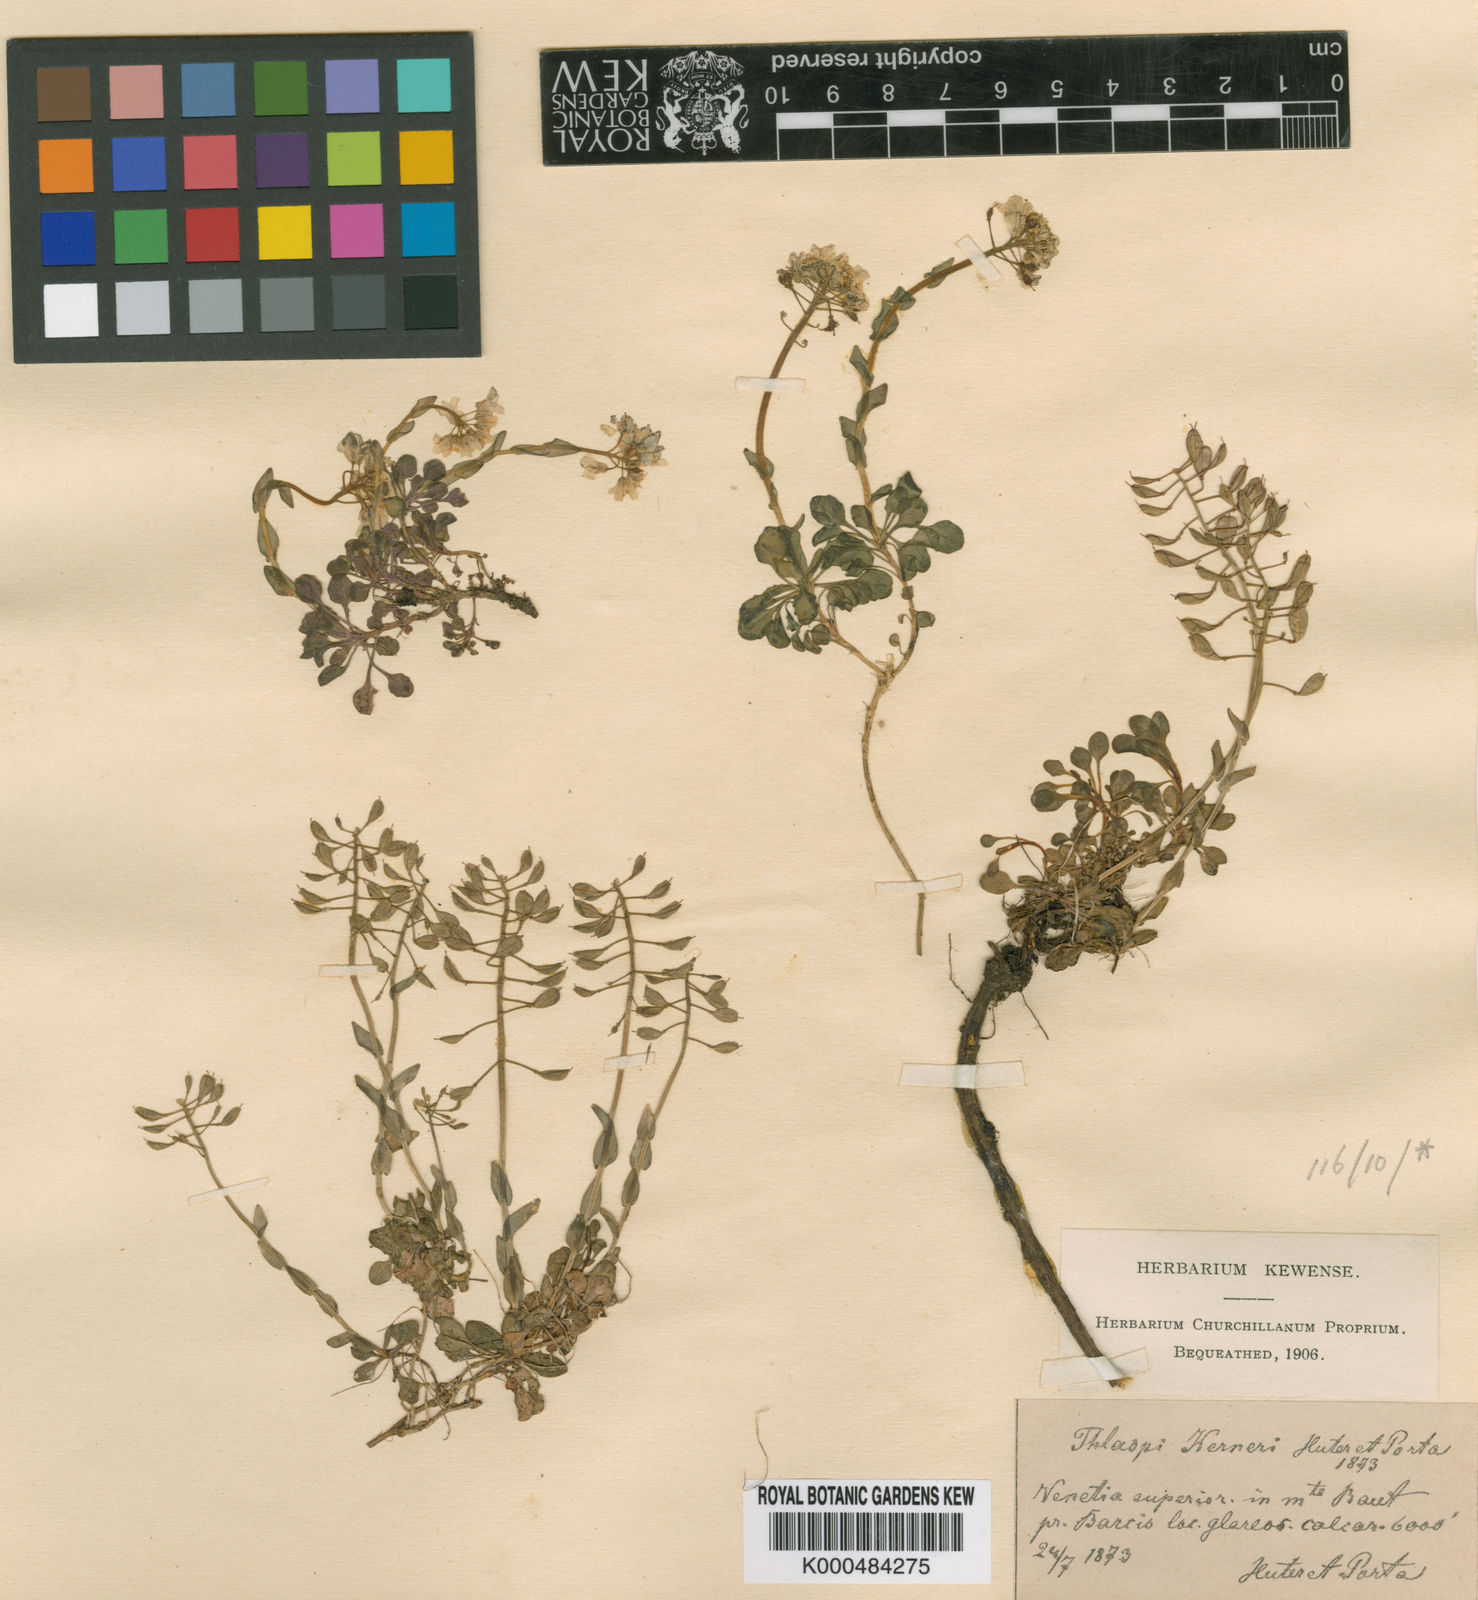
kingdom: Plantae
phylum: Tracheophyta
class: Magnoliopsida
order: Brassicales
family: Brassicaceae
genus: Noccaea
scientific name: Noccaea minima
